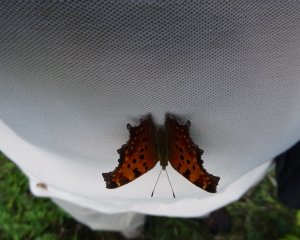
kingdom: Animalia
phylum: Arthropoda
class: Insecta
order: Lepidoptera
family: Nymphalidae
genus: Polygonia
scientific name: Polygonia comma
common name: Eastern Comma
